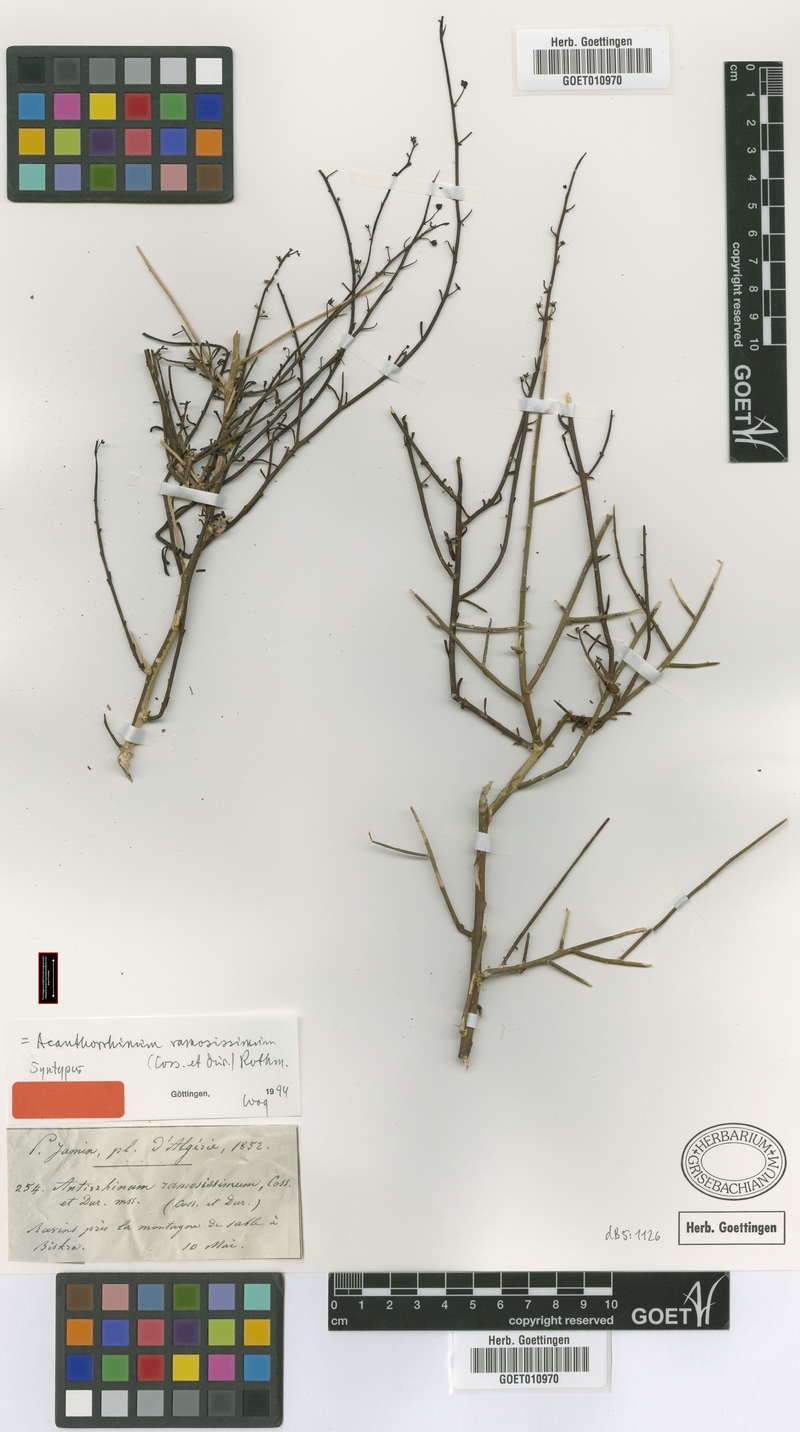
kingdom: Plantae
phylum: Tracheophyta
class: Magnoliopsida
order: Lamiales
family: Plantaginaceae
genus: Acanthorrhinum
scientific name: Acanthorrhinum ramosissimum
